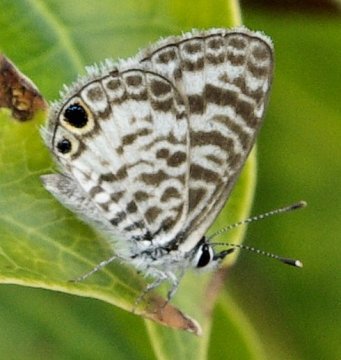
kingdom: Animalia
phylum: Arthropoda
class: Insecta
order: Lepidoptera
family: Lycaenidae
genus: Leptotes
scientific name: Leptotes cassius
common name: Cassius Blue
